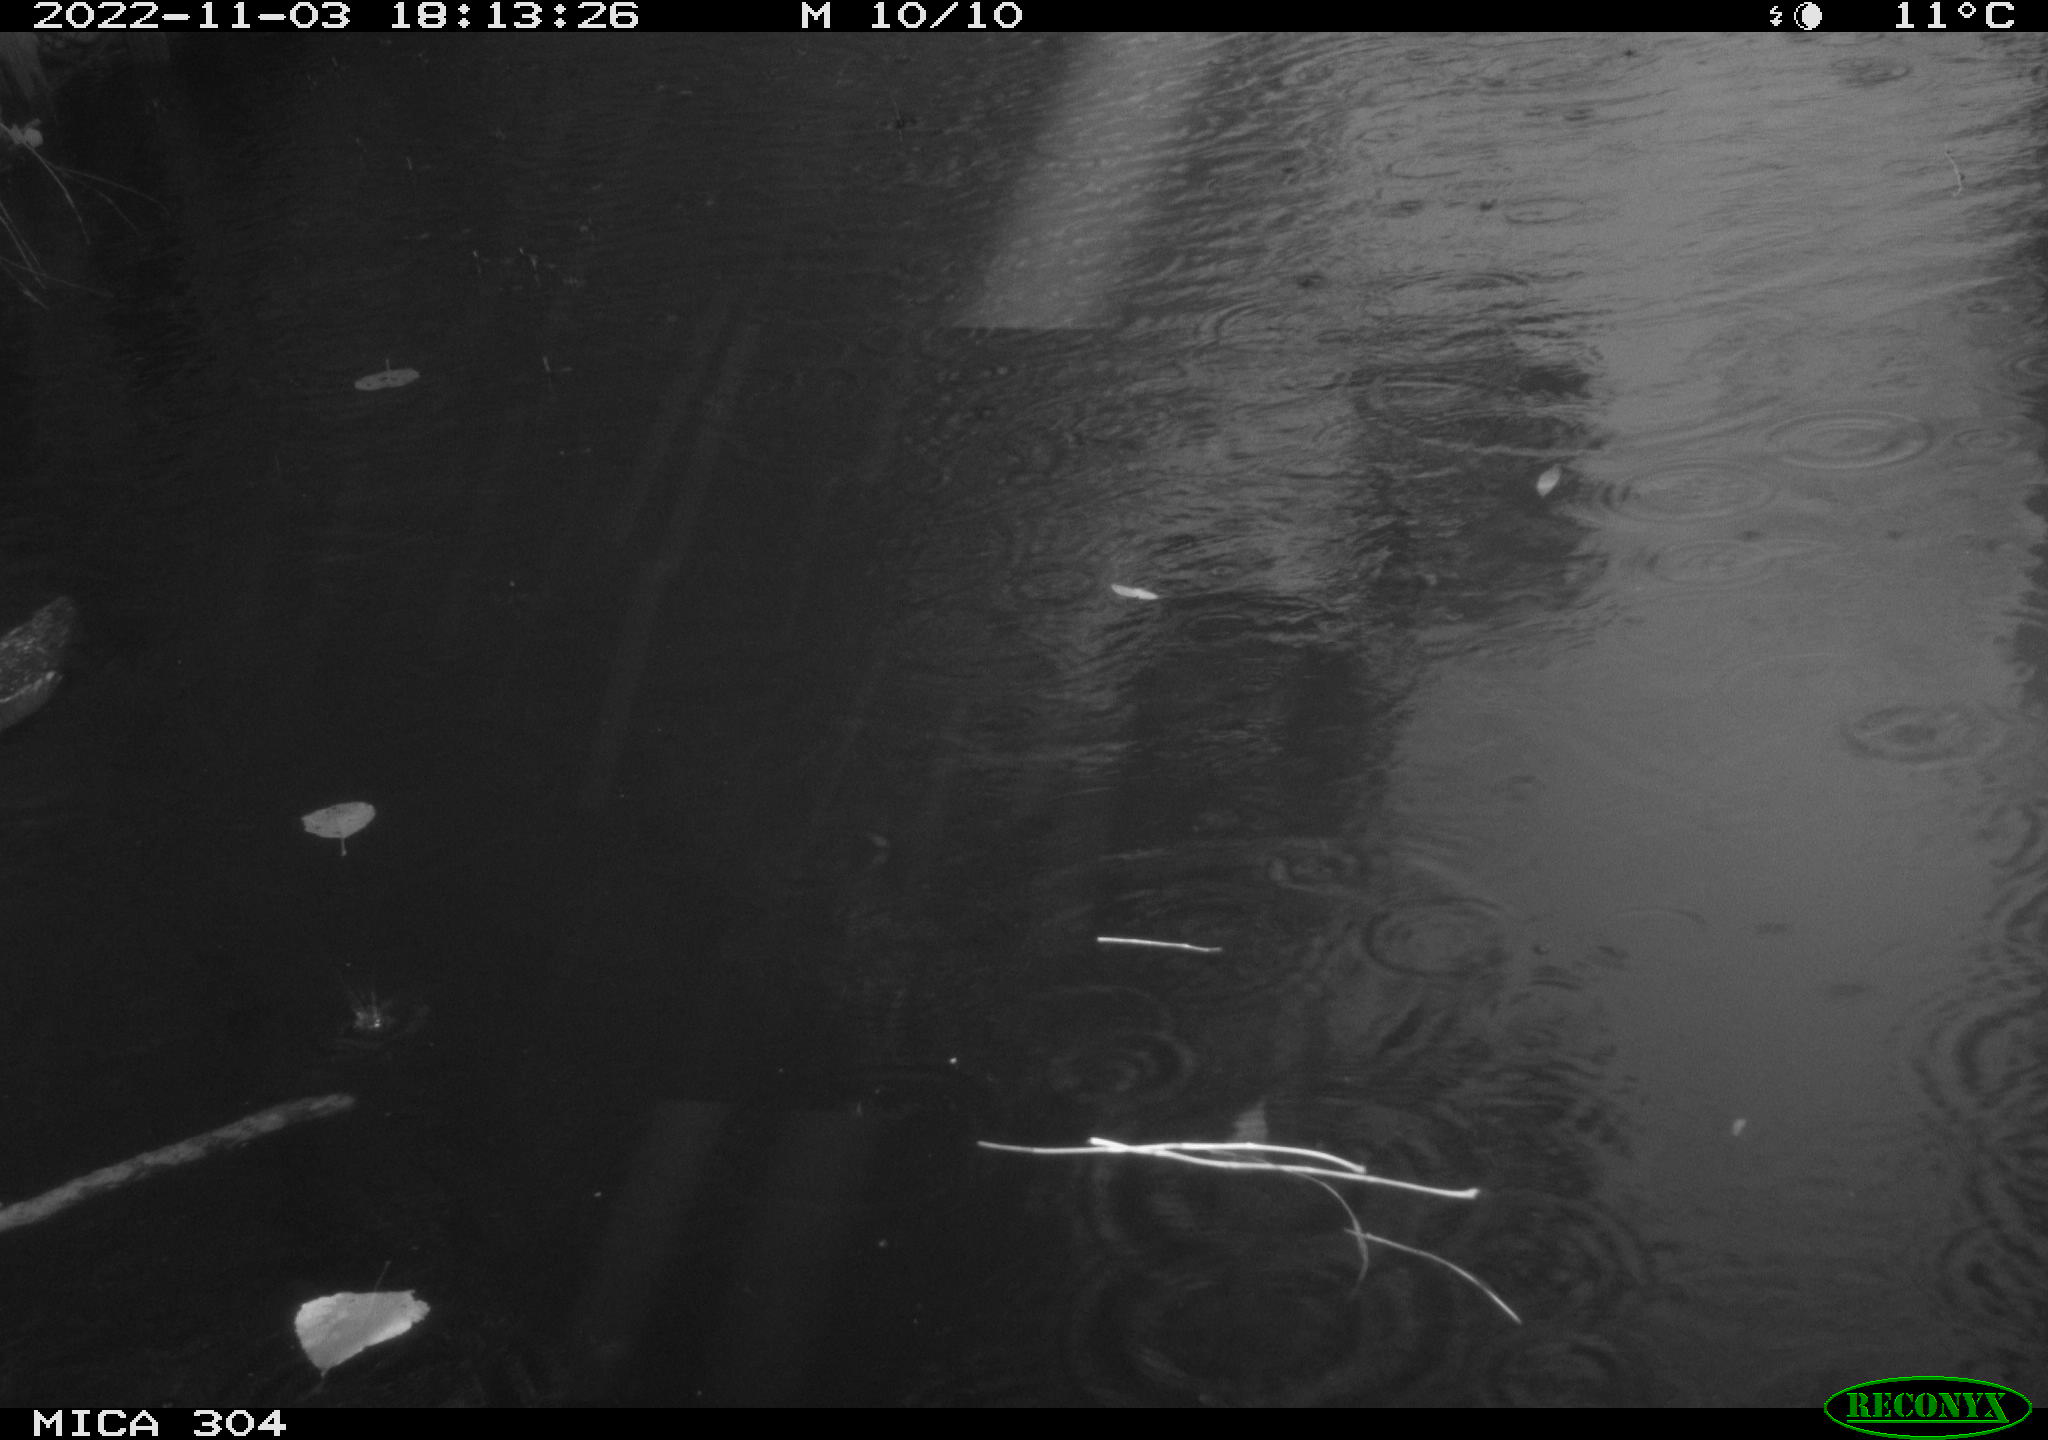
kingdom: Animalia
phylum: Chordata
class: Aves
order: Gruiformes
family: Rallidae
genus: Gallinula
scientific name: Gallinula chloropus
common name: Common moorhen
